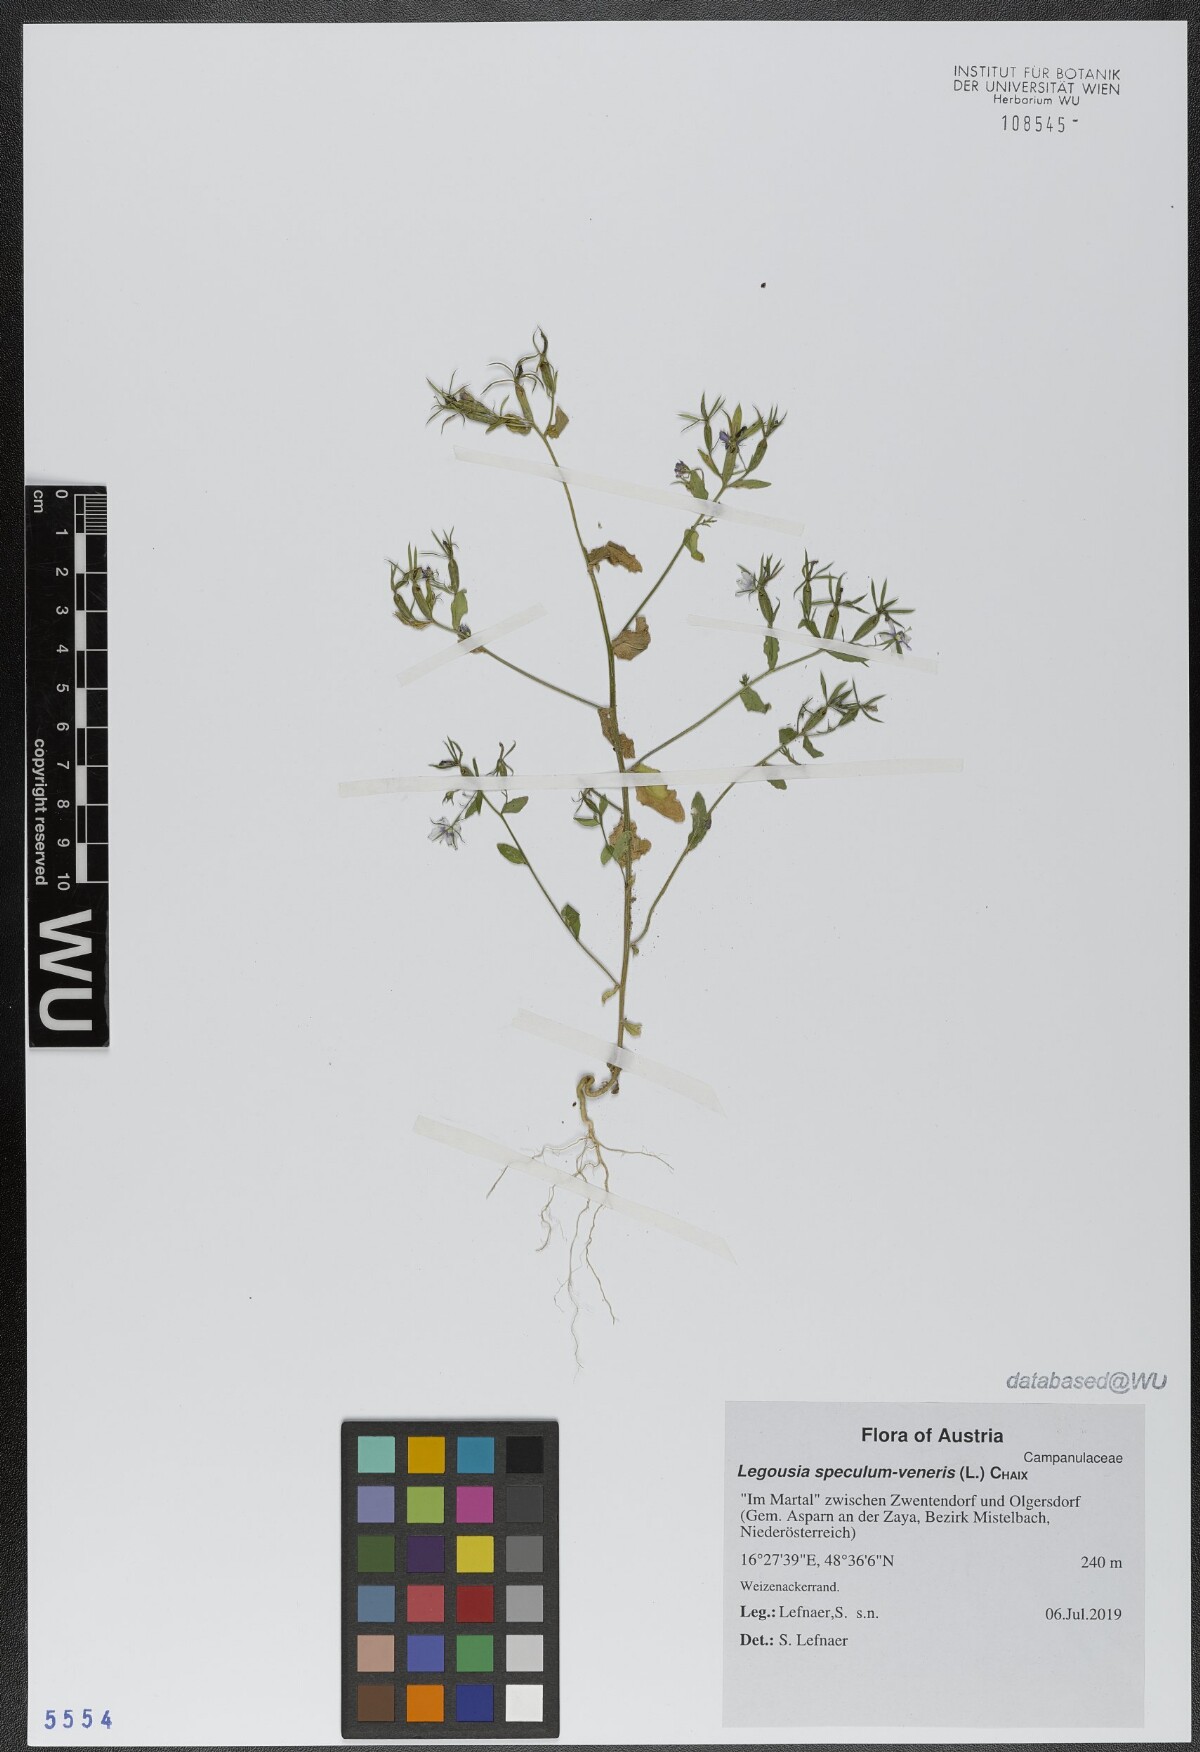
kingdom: Plantae
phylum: Tracheophyta
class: Magnoliopsida
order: Asterales
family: Campanulaceae
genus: Legousia
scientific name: Legousia speculum-veneris
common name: Large venus's-looking-glass
